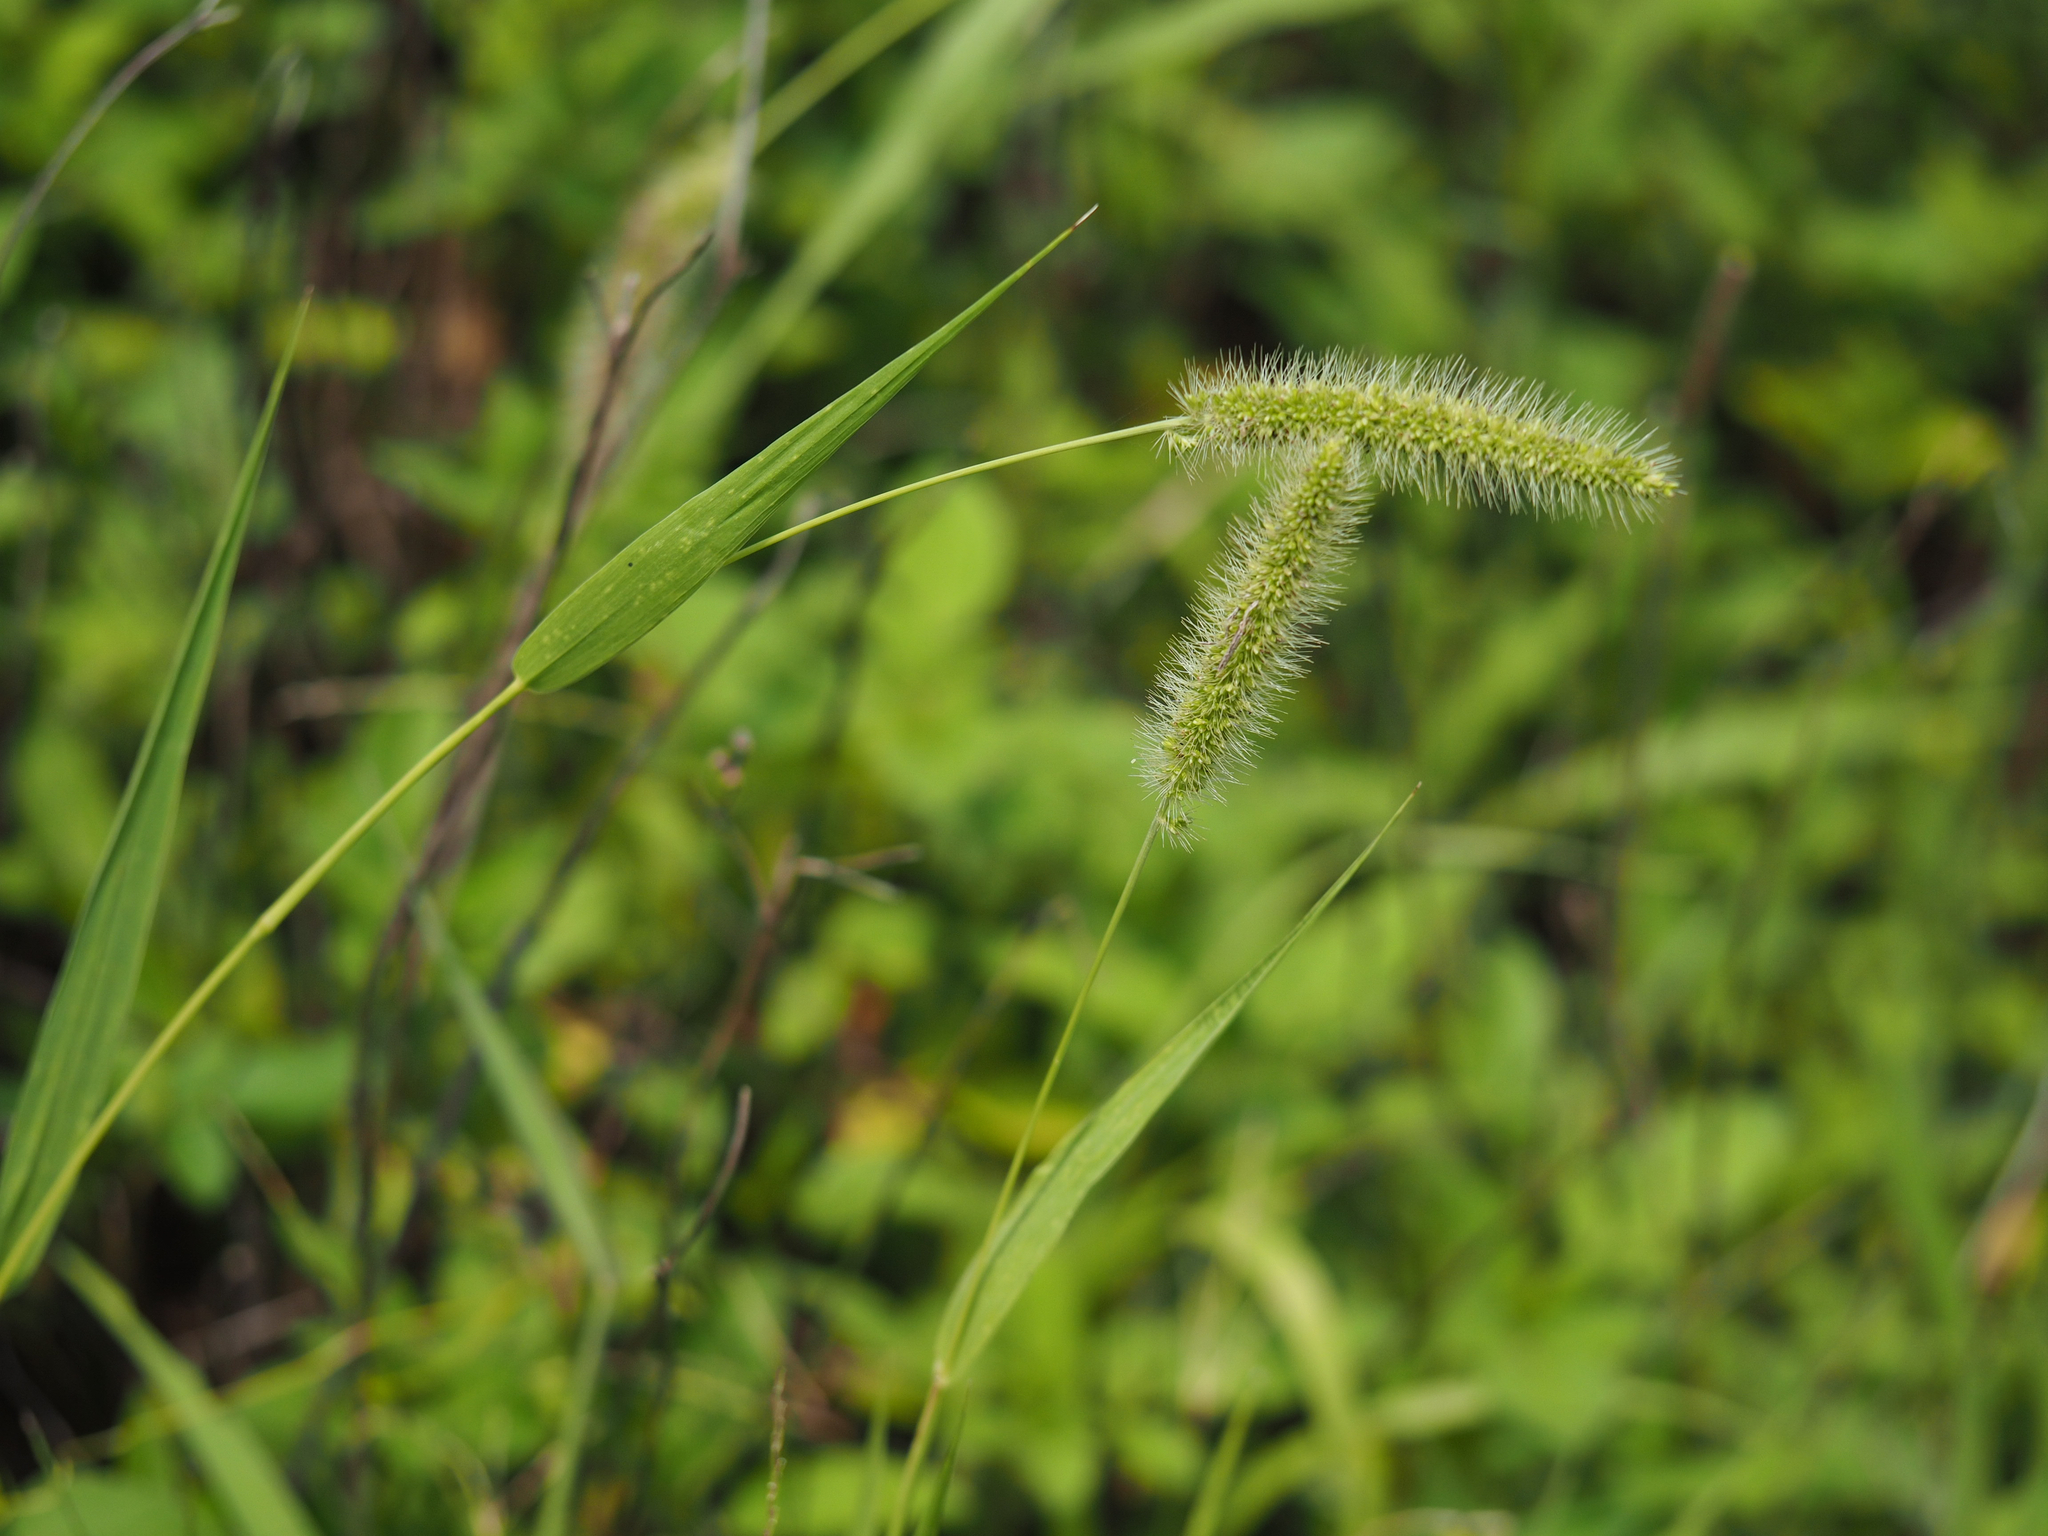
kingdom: Plantae
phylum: Tracheophyta
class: Liliopsida
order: Poales
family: Poaceae
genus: Setaria
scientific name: Setaria verticillata
